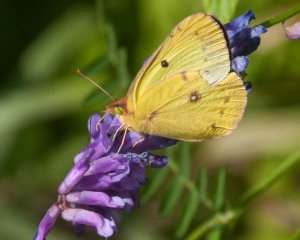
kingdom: Animalia
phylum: Arthropoda
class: Insecta
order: Lepidoptera
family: Pieridae
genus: Colias
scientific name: Colias philodice
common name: Clouded Sulphur
